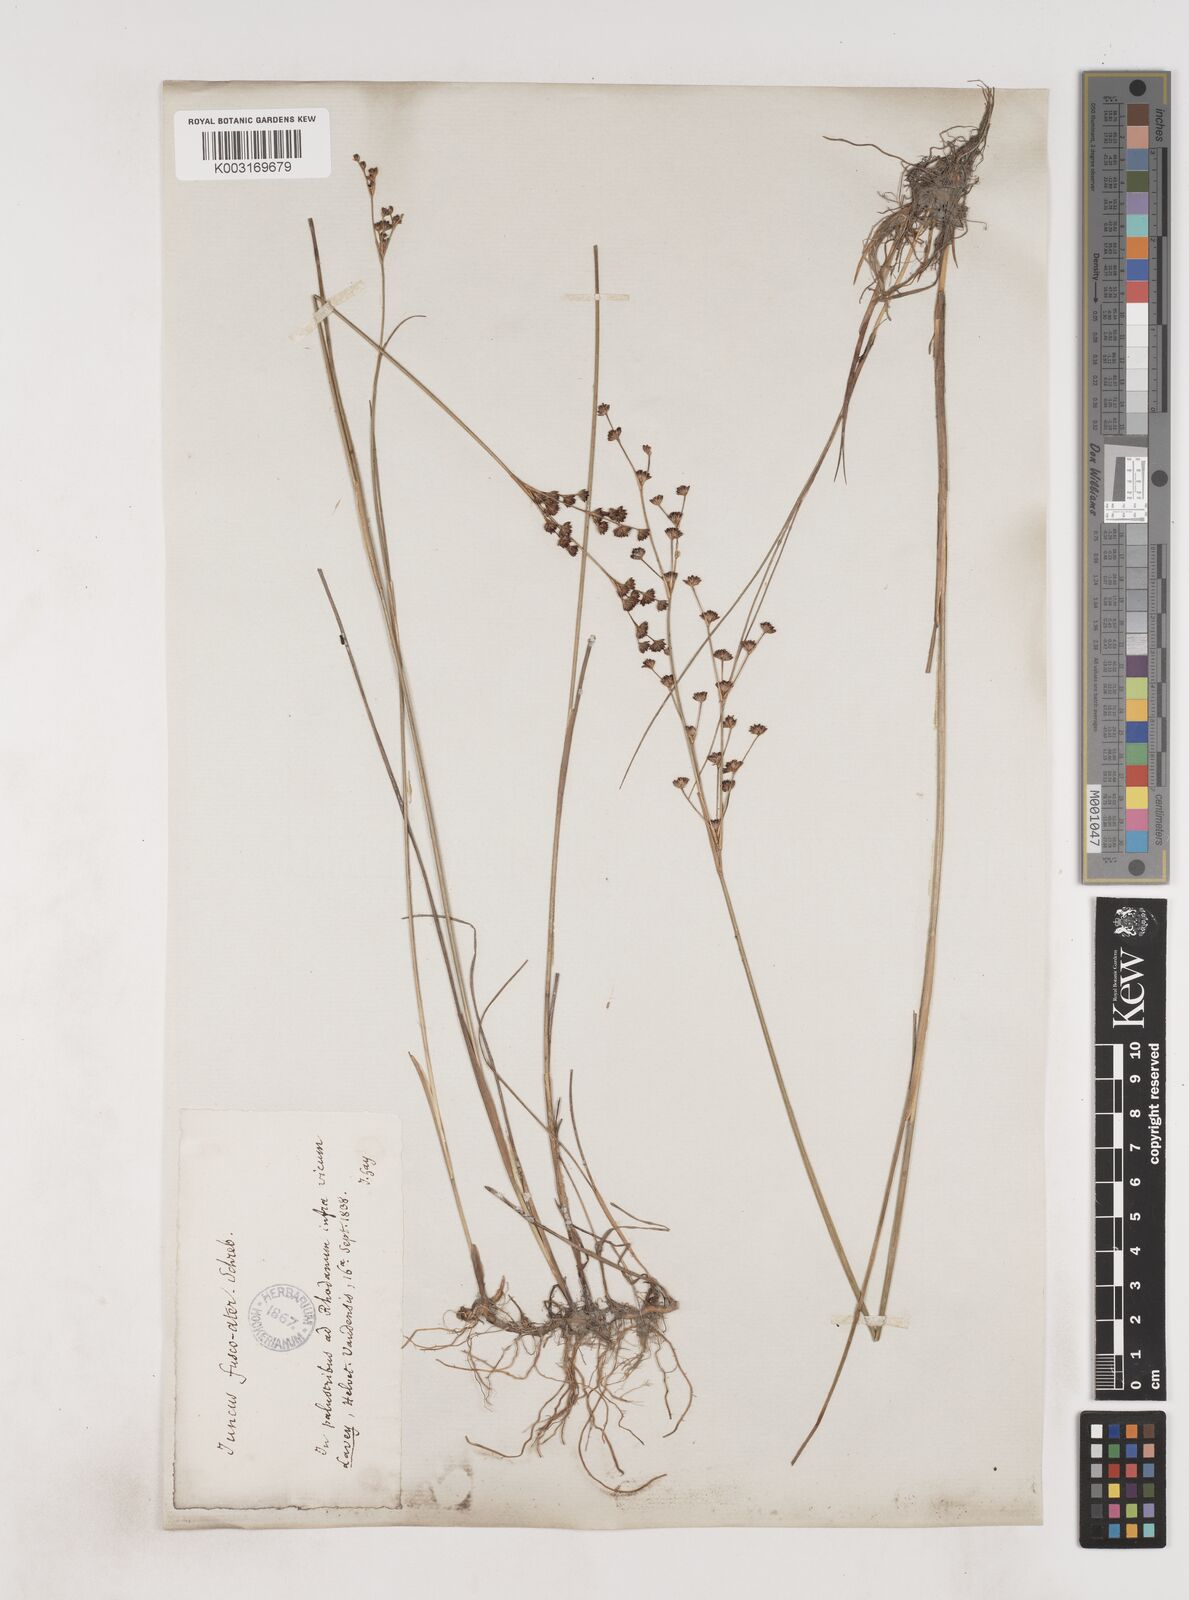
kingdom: Plantae
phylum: Tracheophyta
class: Liliopsida
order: Poales
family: Juncaceae
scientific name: Juncaceae
